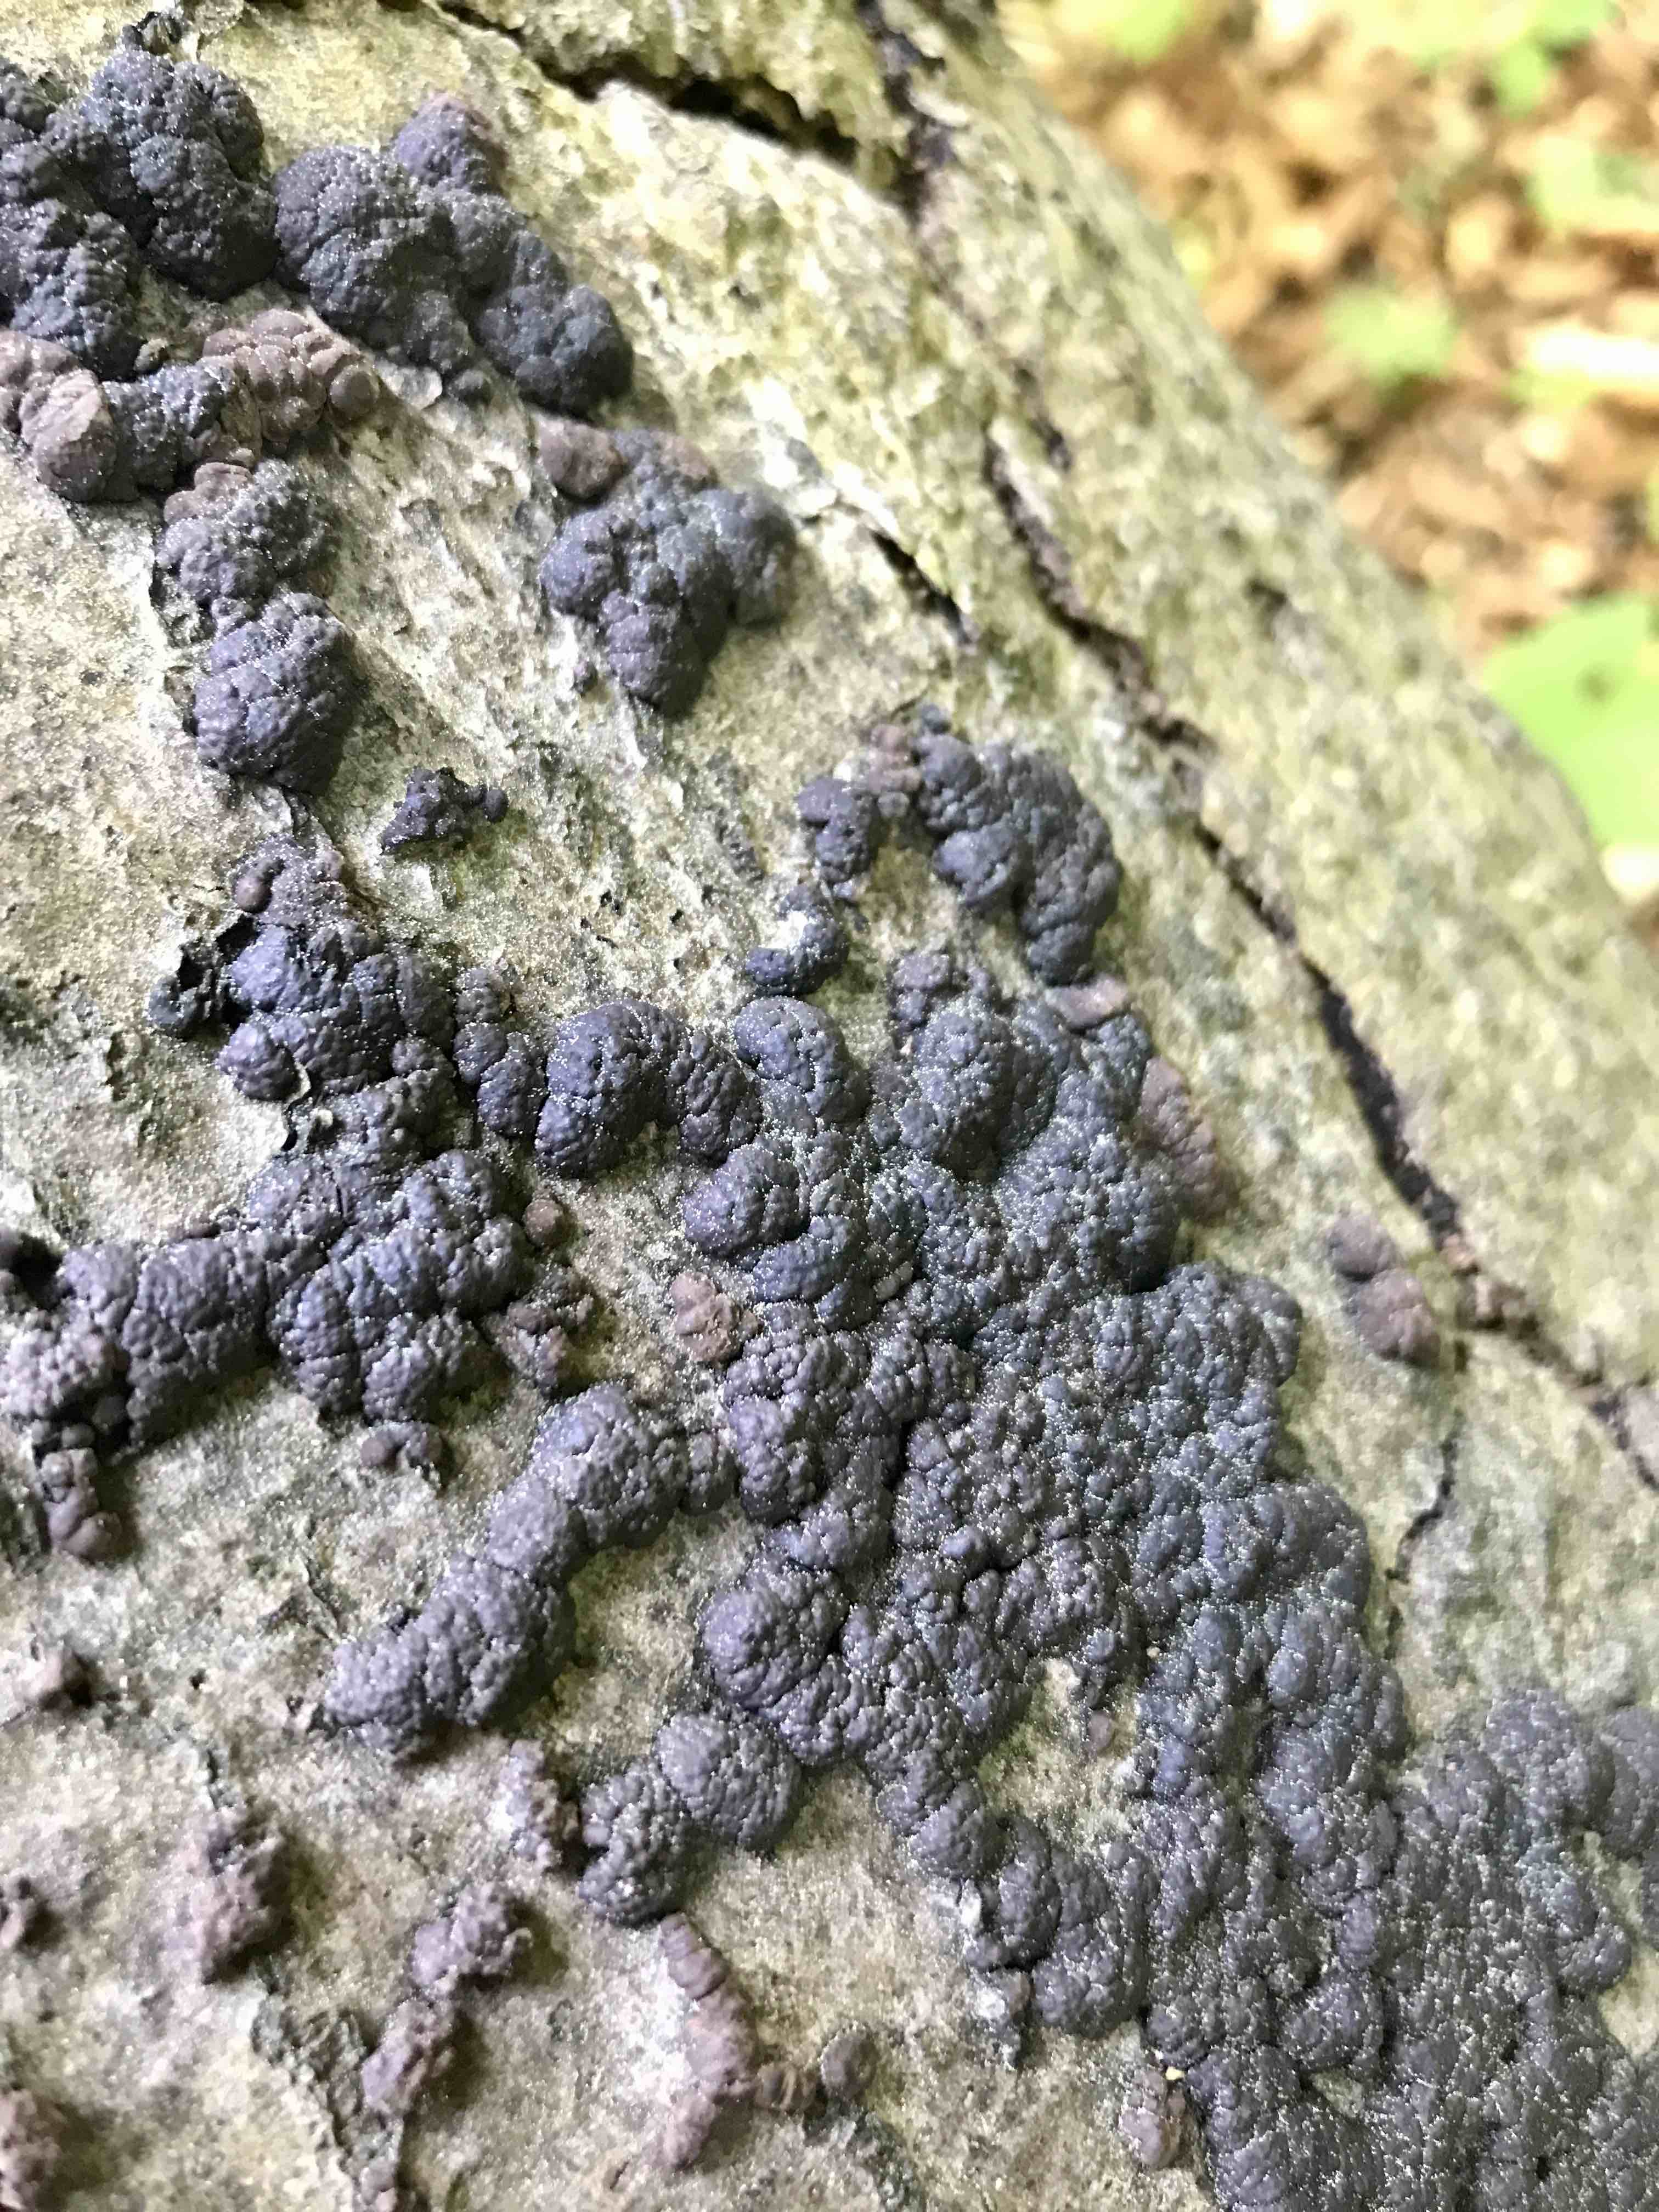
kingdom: Fungi
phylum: Ascomycota
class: Sordariomycetes
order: Xylariales
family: Hypoxylaceae
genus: Jackrogersella
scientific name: Jackrogersella cohaerens
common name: sammenflydende kulbær
